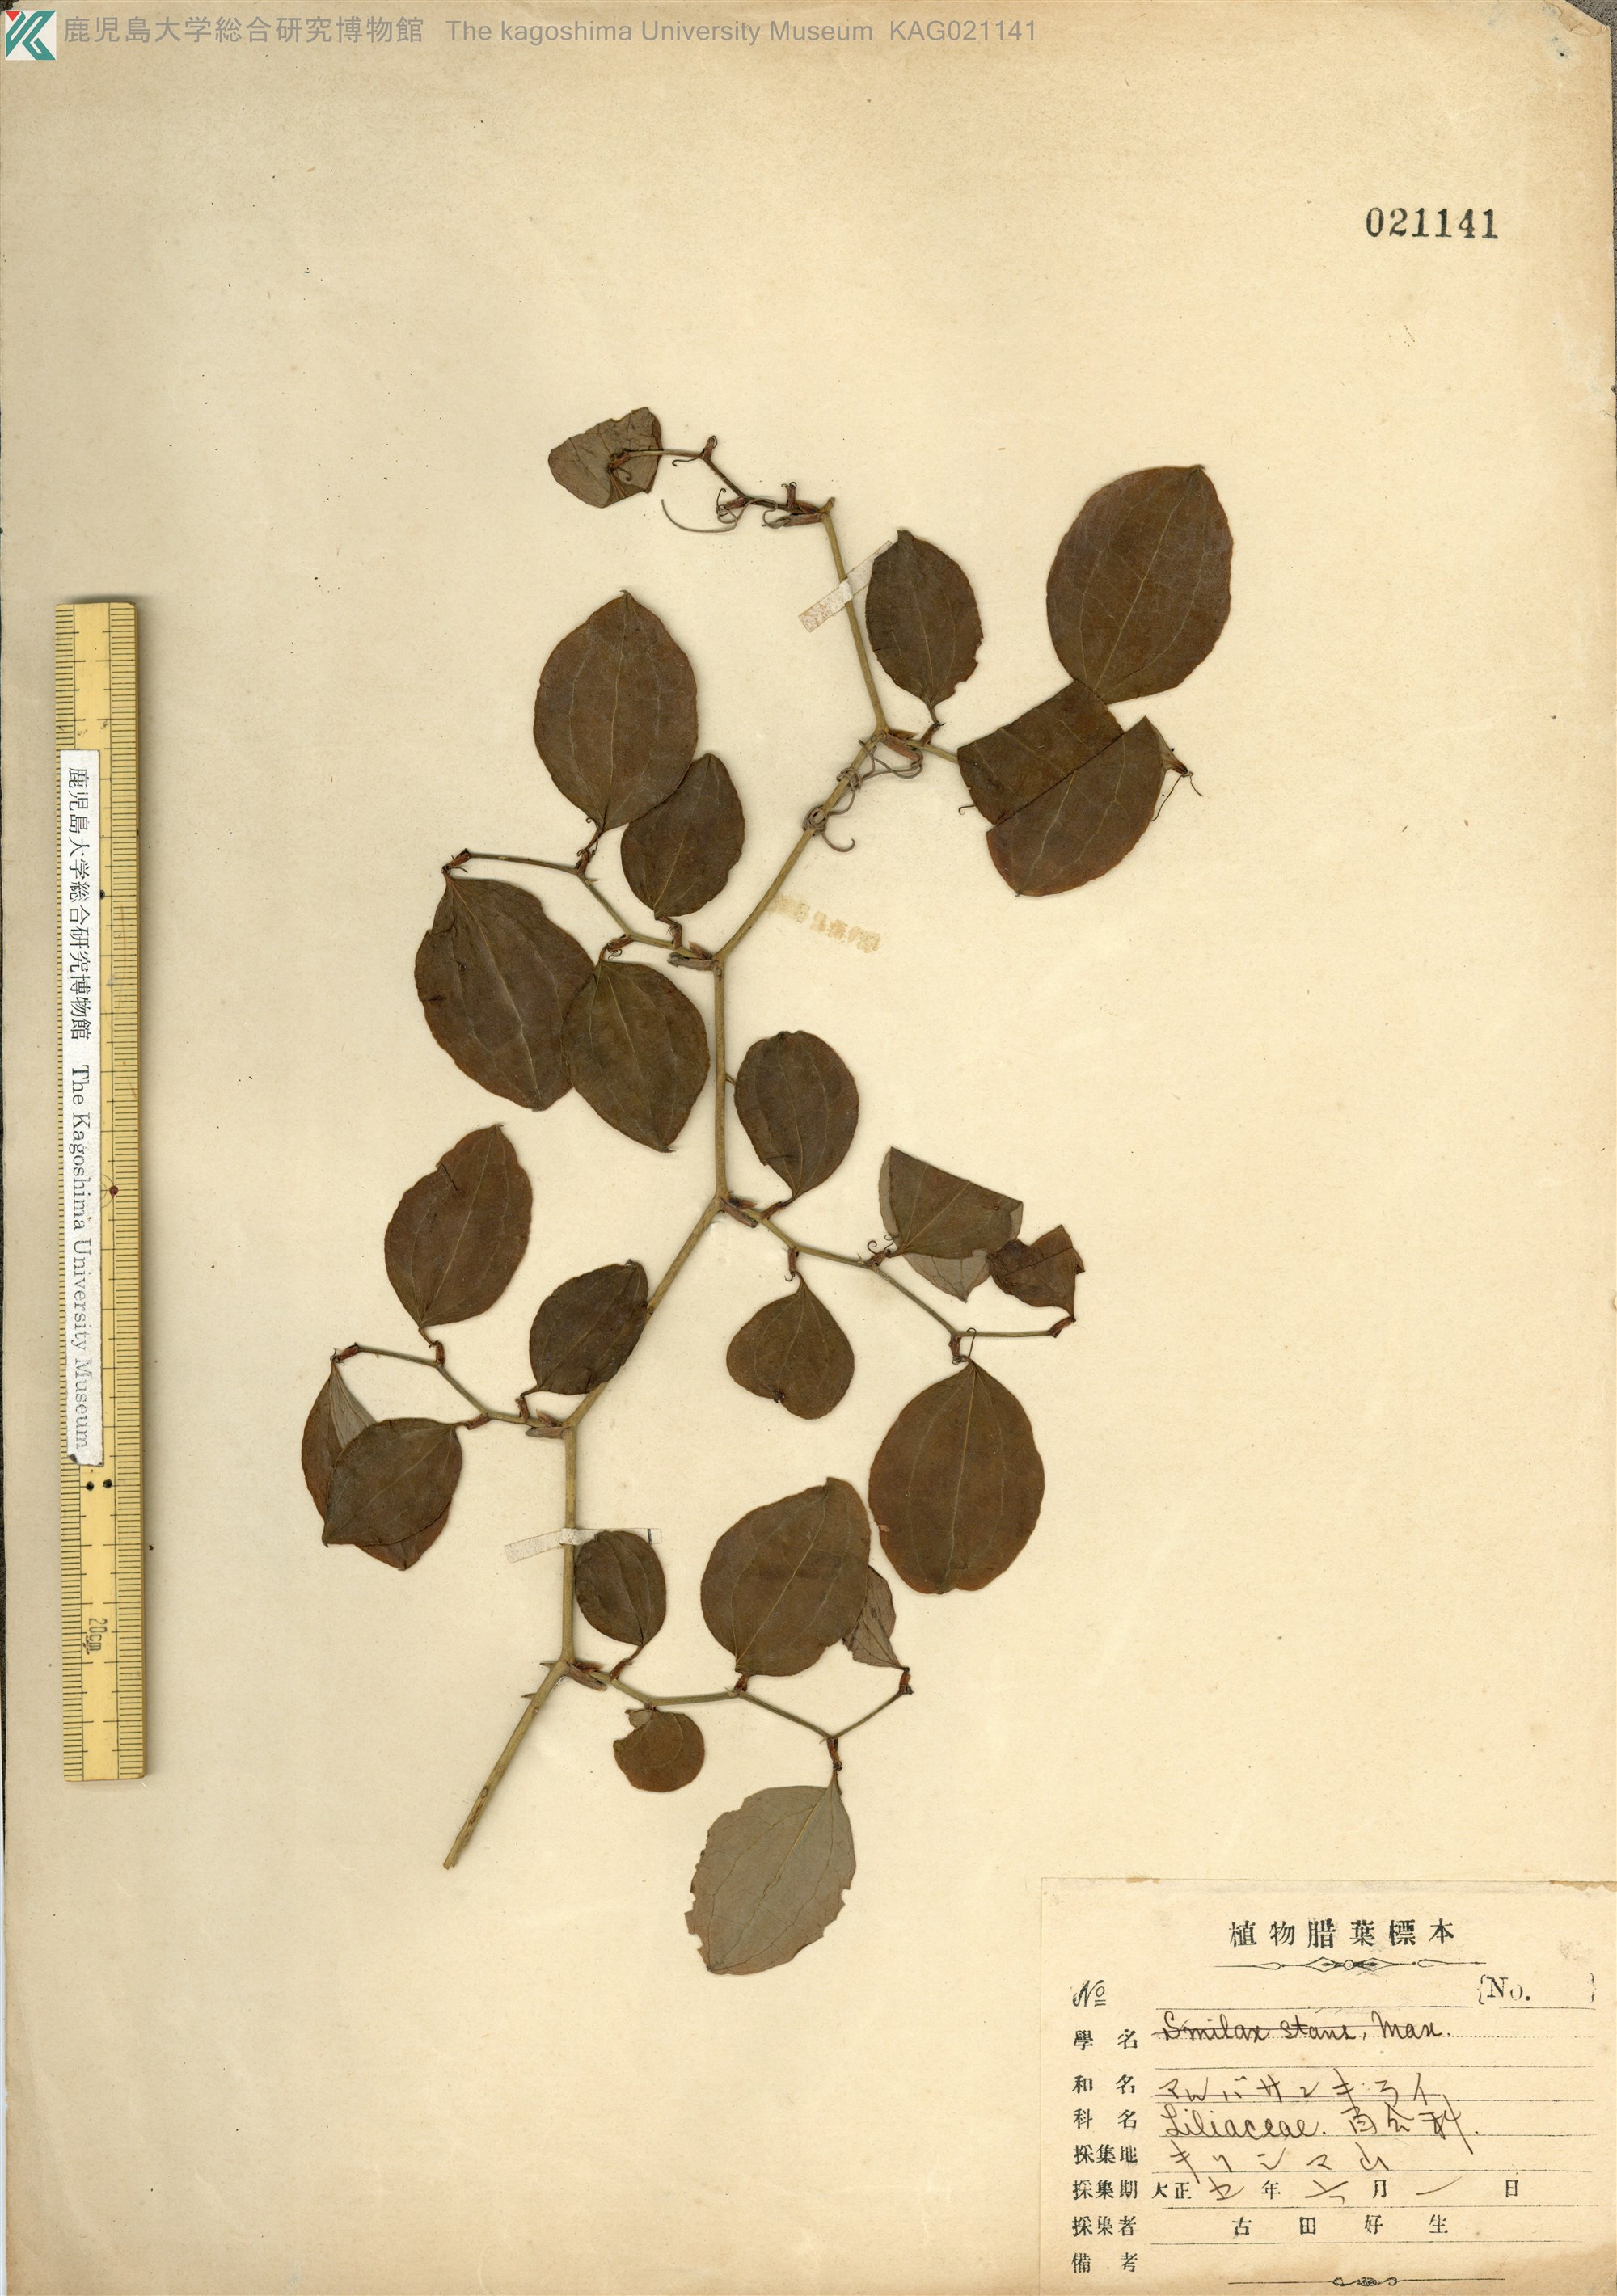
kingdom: Plantae
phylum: Tracheophyta
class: Liliopsida
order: Liliales
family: Smilacaceae
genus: Smilax
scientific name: Smilax china
